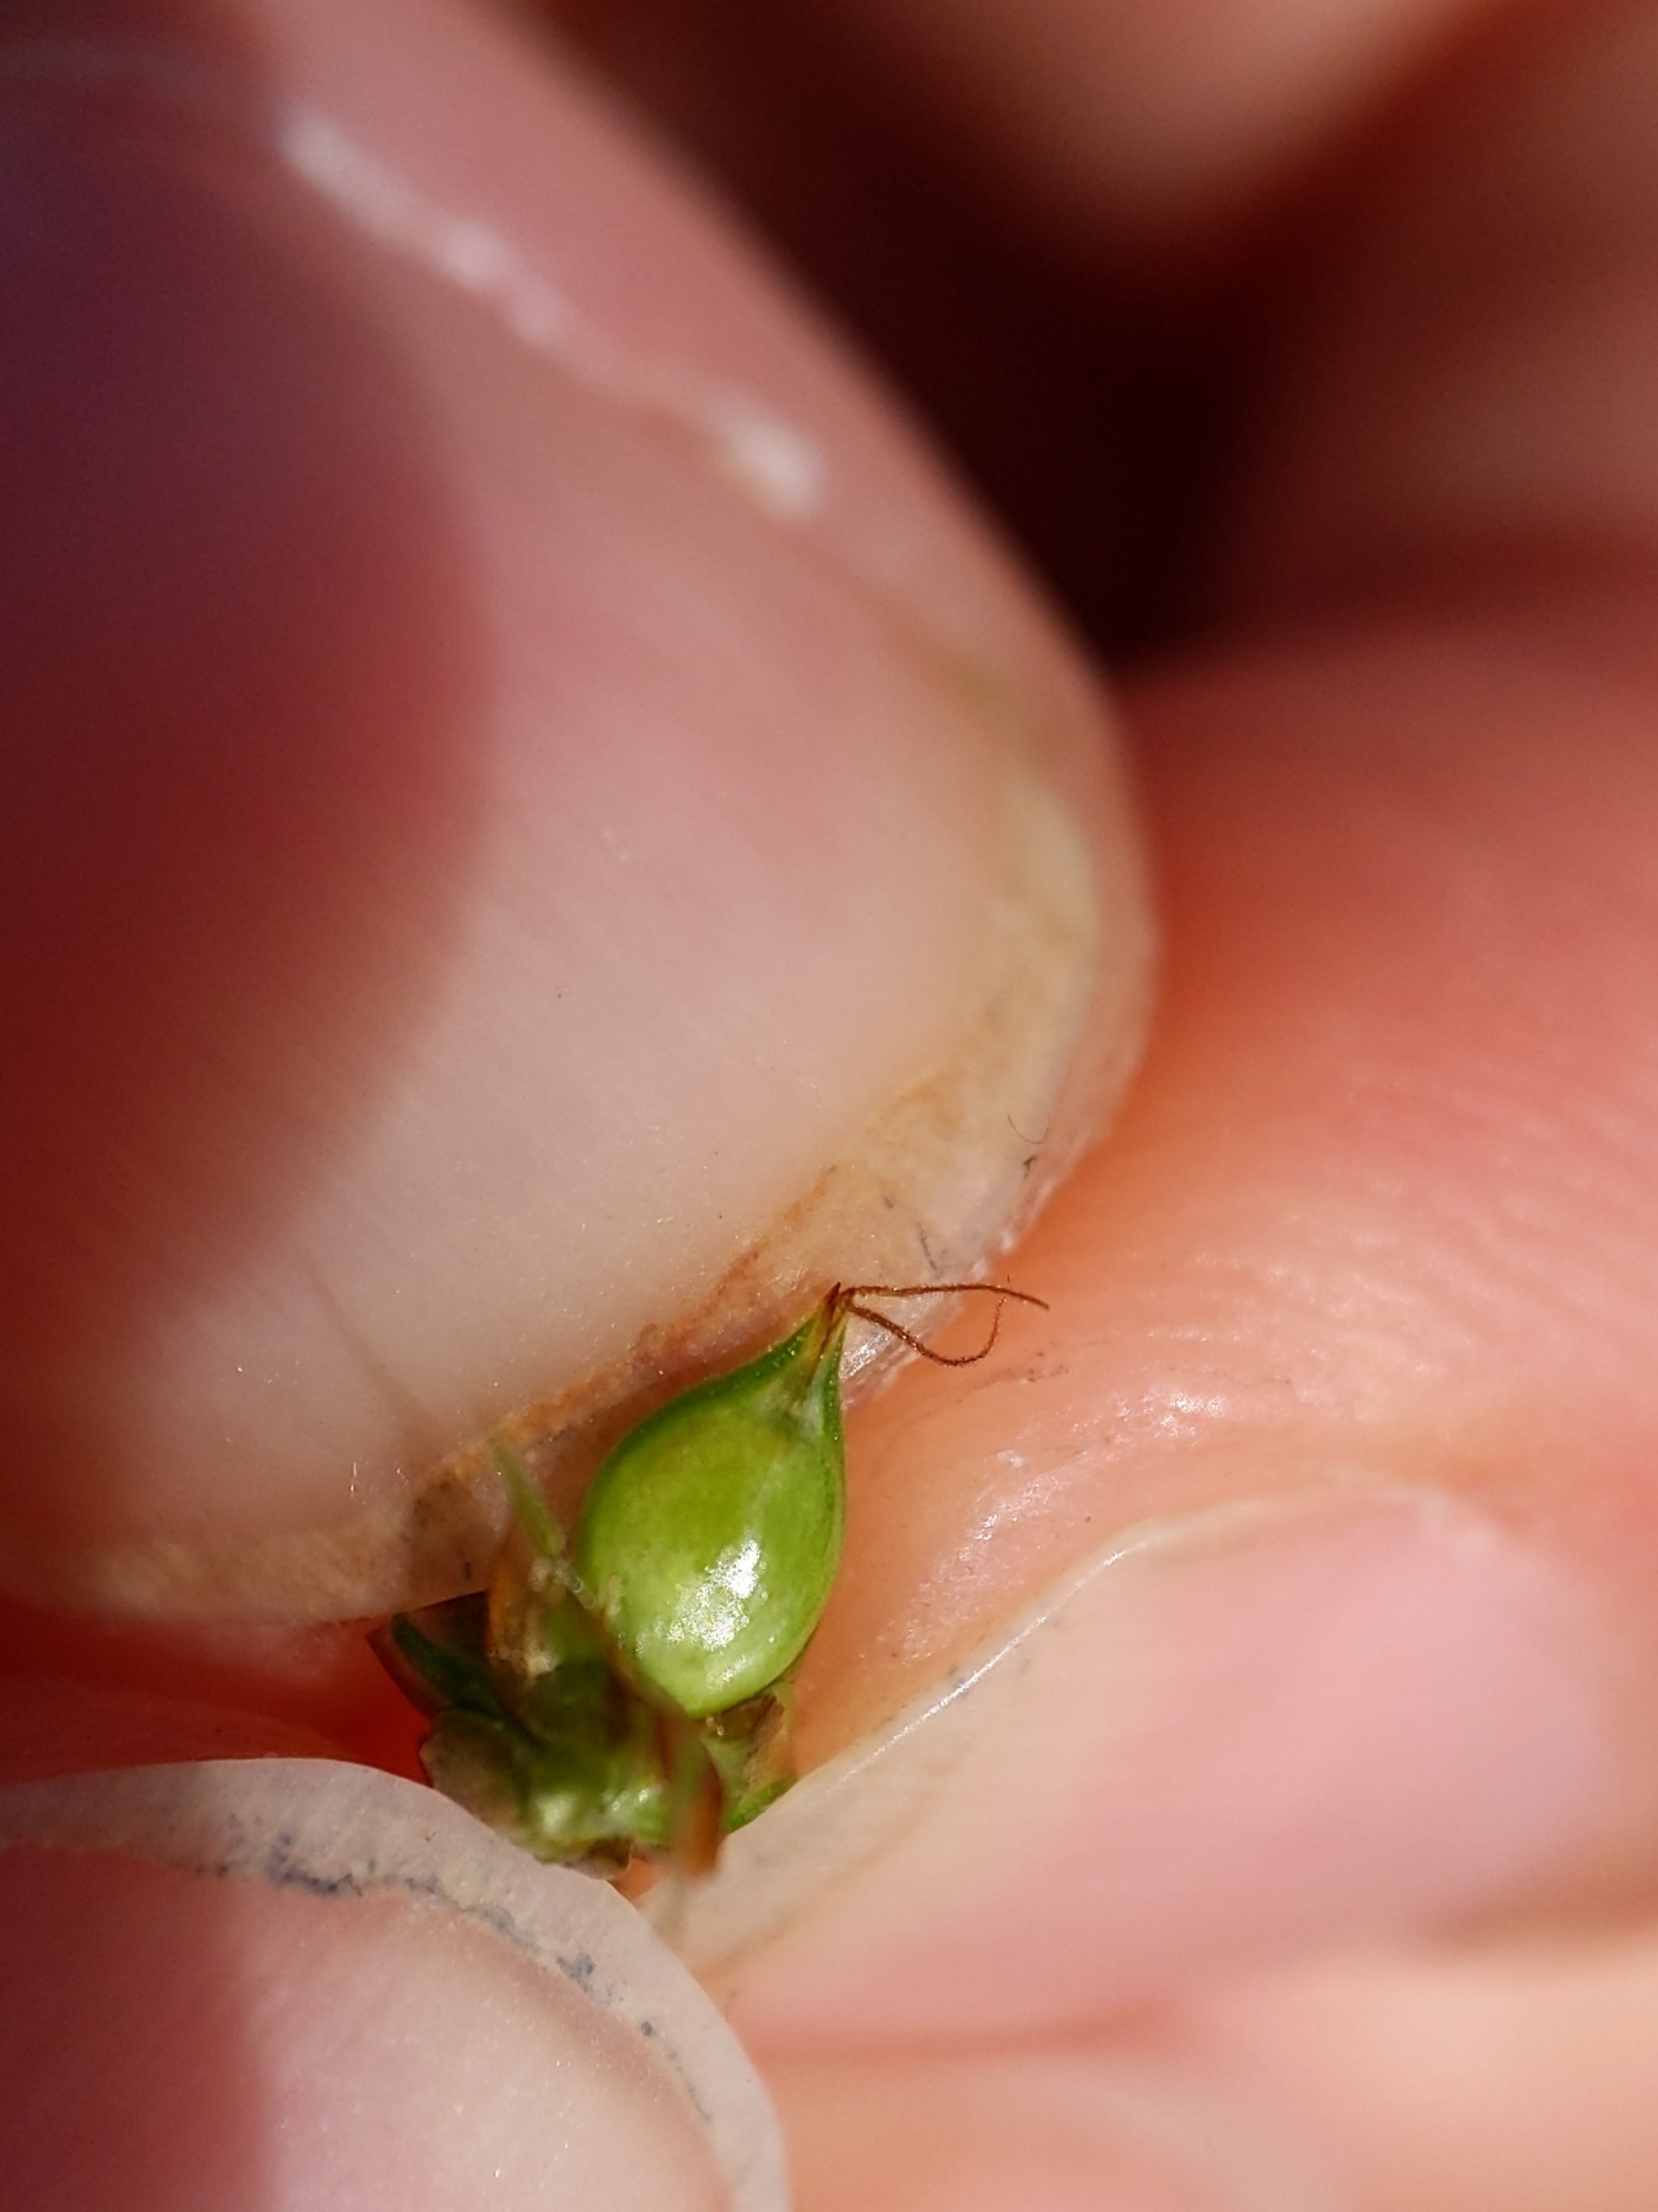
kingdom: Plantae
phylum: Tracheophyta
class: Liliopsida
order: Poales
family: Cyperaceae
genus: Carex
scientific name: Carex pairae
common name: Pigget star
